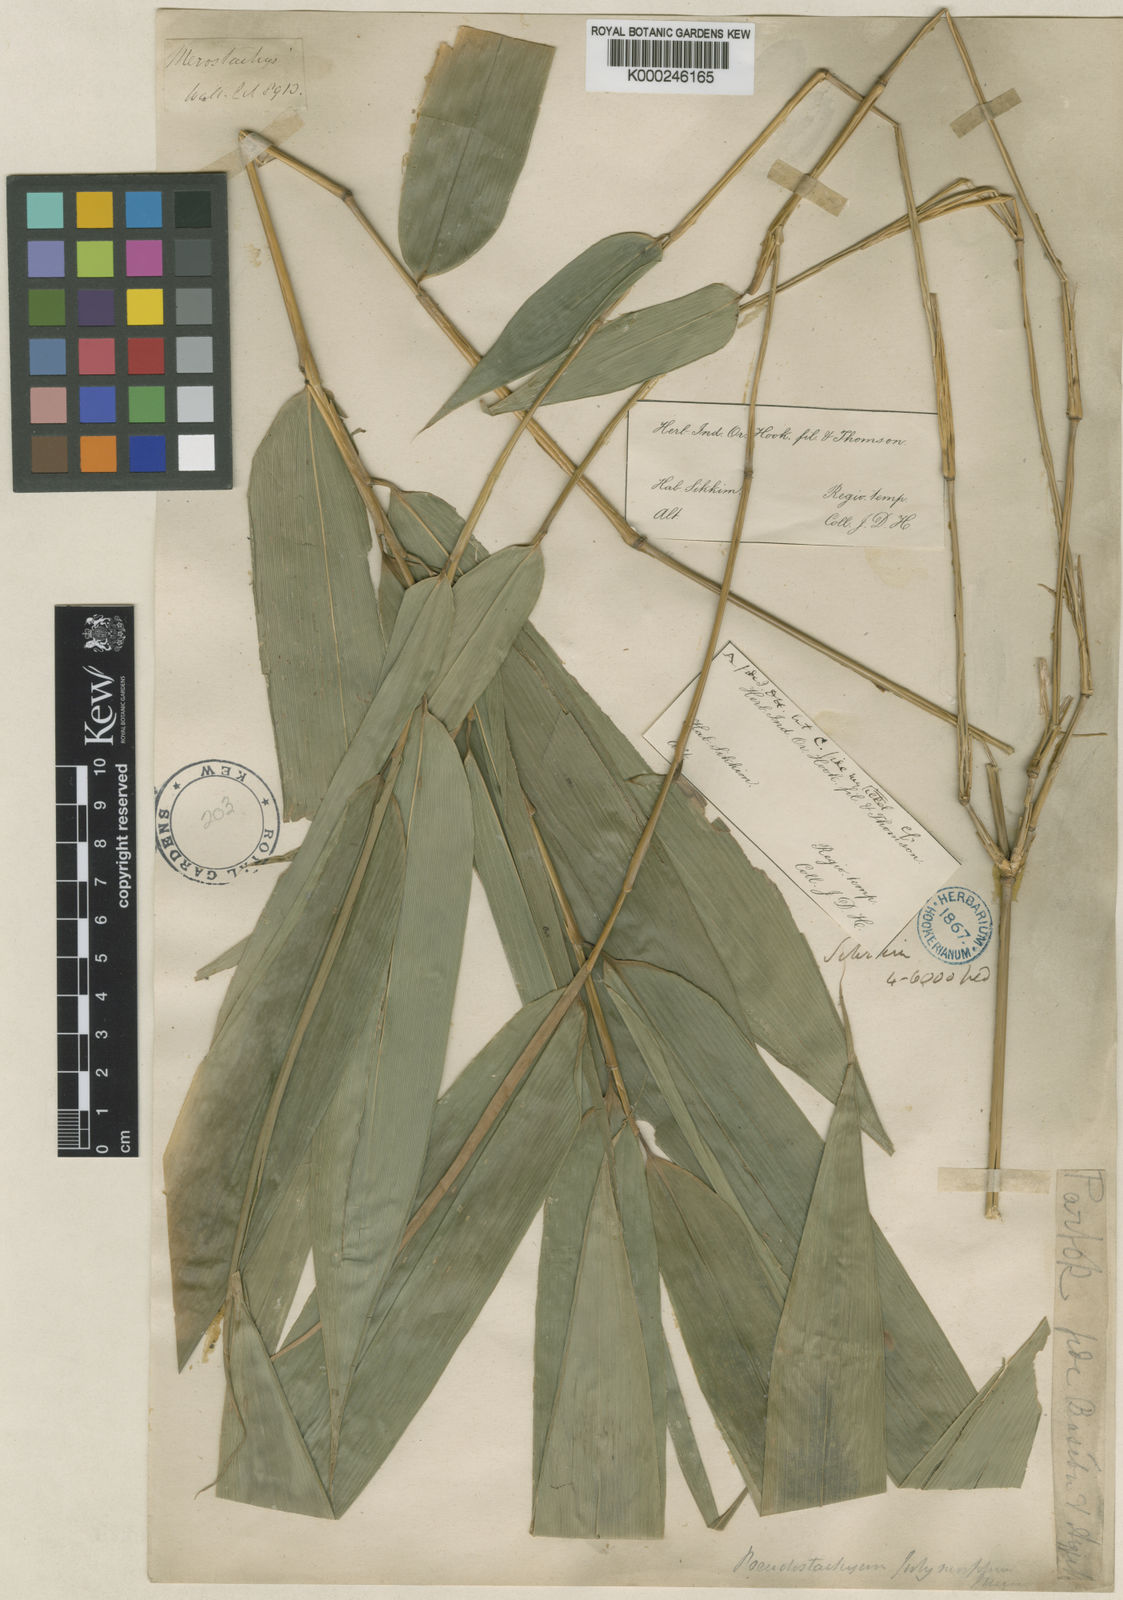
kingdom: Plantae
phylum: Tracheophyta
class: Liliopsida
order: Poales
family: Poaceae
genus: Pseudostachyum
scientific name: Pseudostachyum polymorphum
